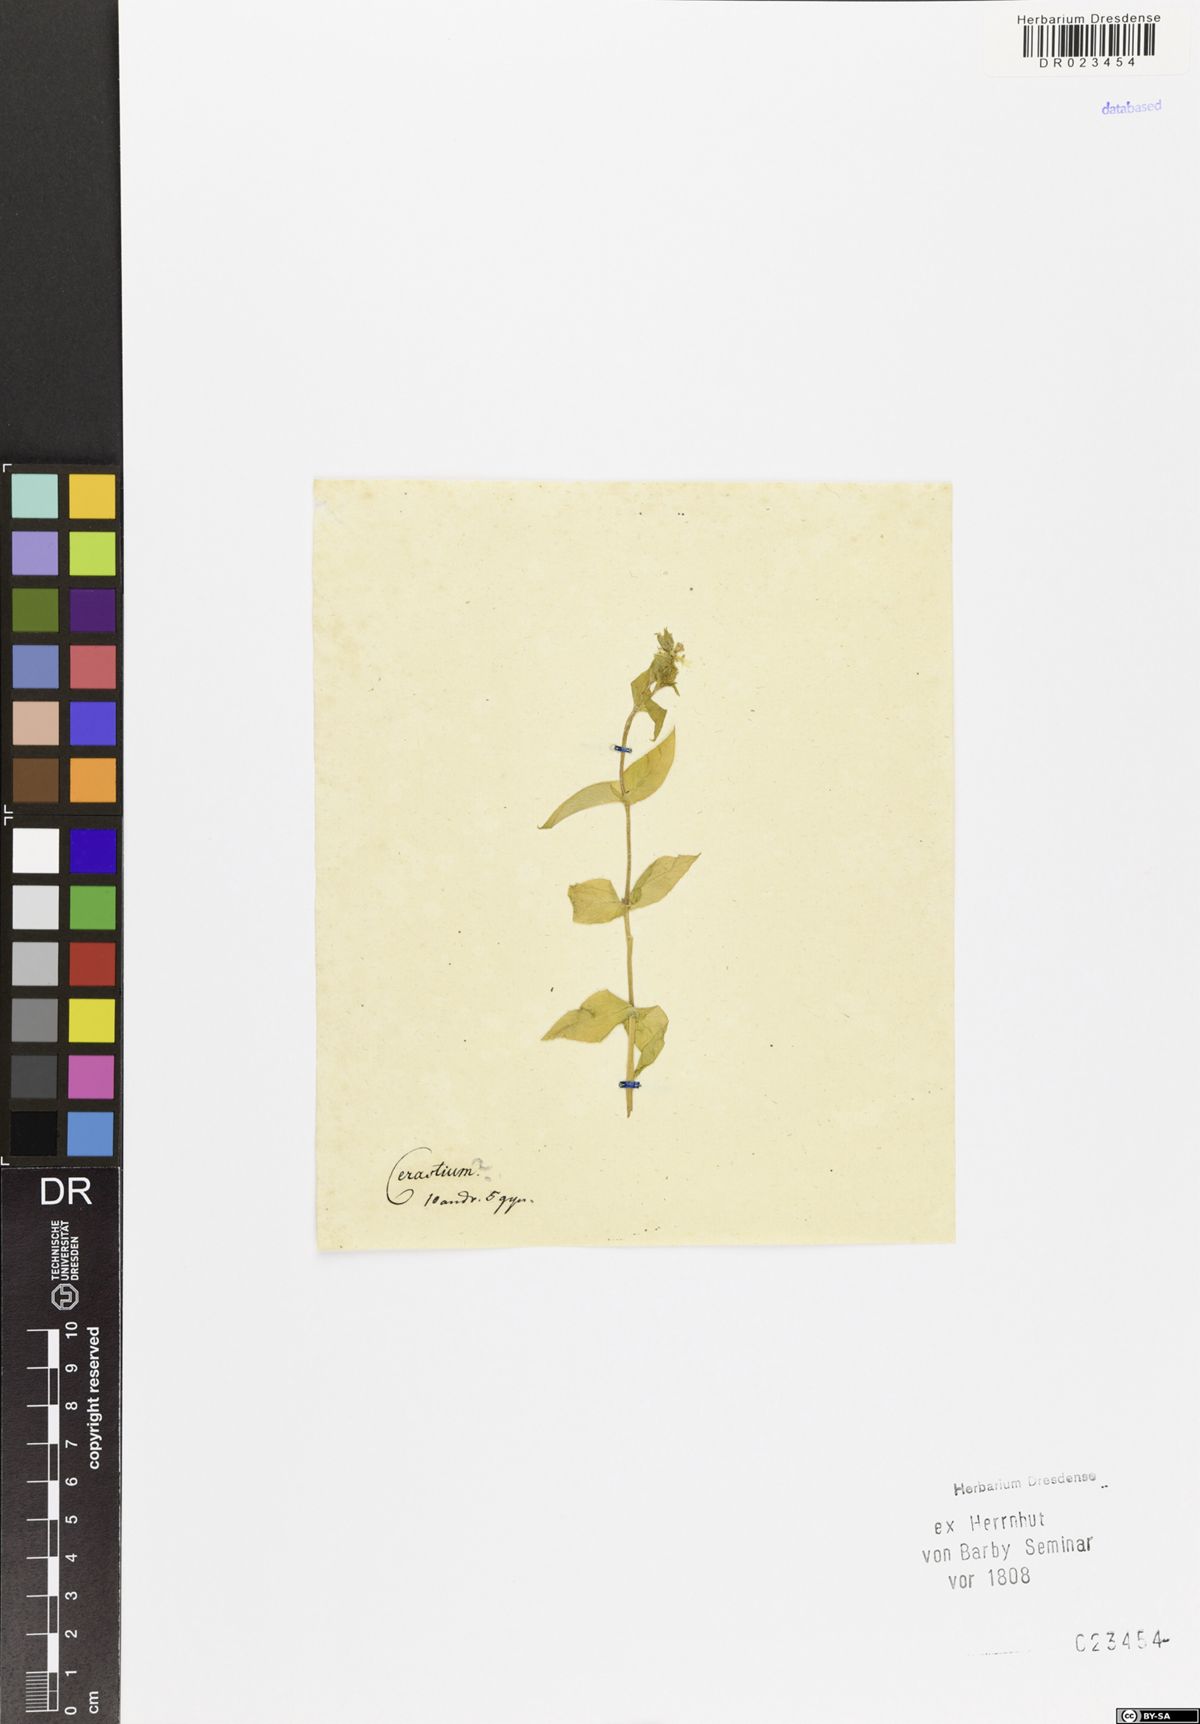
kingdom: Plantae
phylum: Tracheophyta
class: Magnoliopsida
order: Caryophyllales
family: Caryophyllaceae
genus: Cerastium
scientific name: Cerastium
